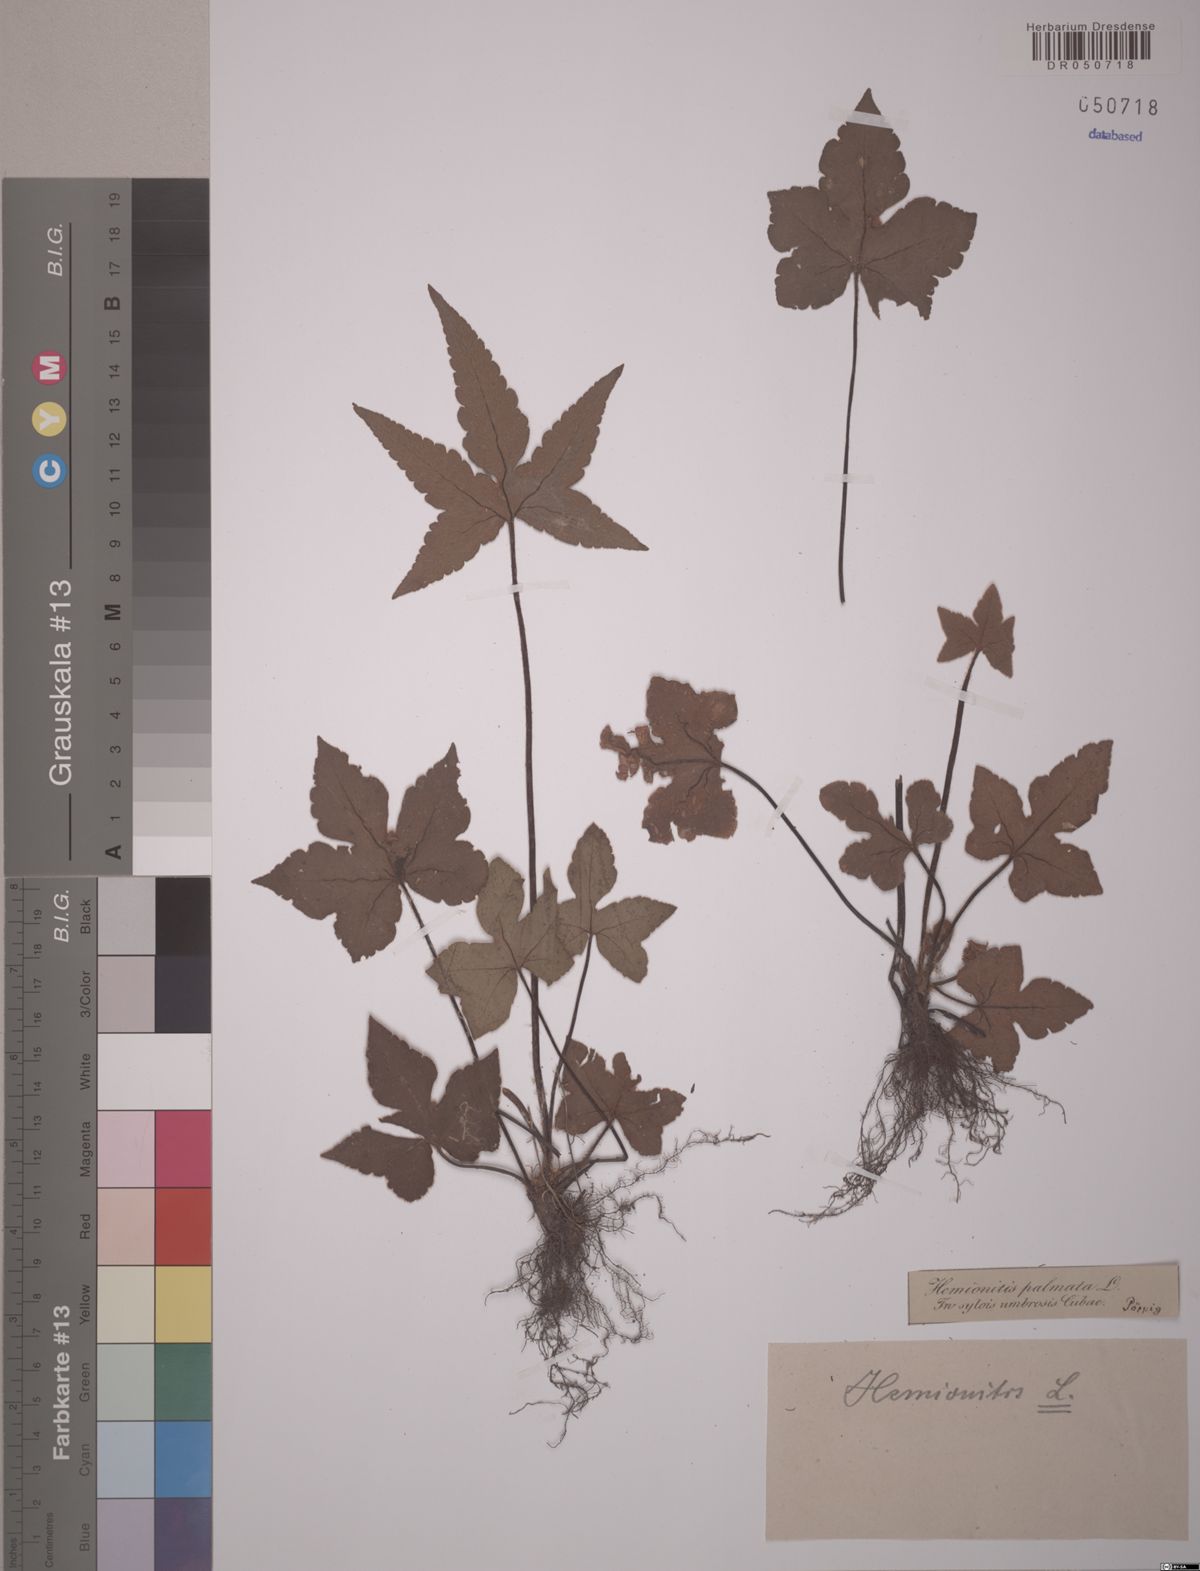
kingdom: Plantae
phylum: Tracheophyta
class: Polypodiopsida
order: Polypodiales
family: Pteridaceae
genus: Hemionitis
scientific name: Hemionitis palmata
